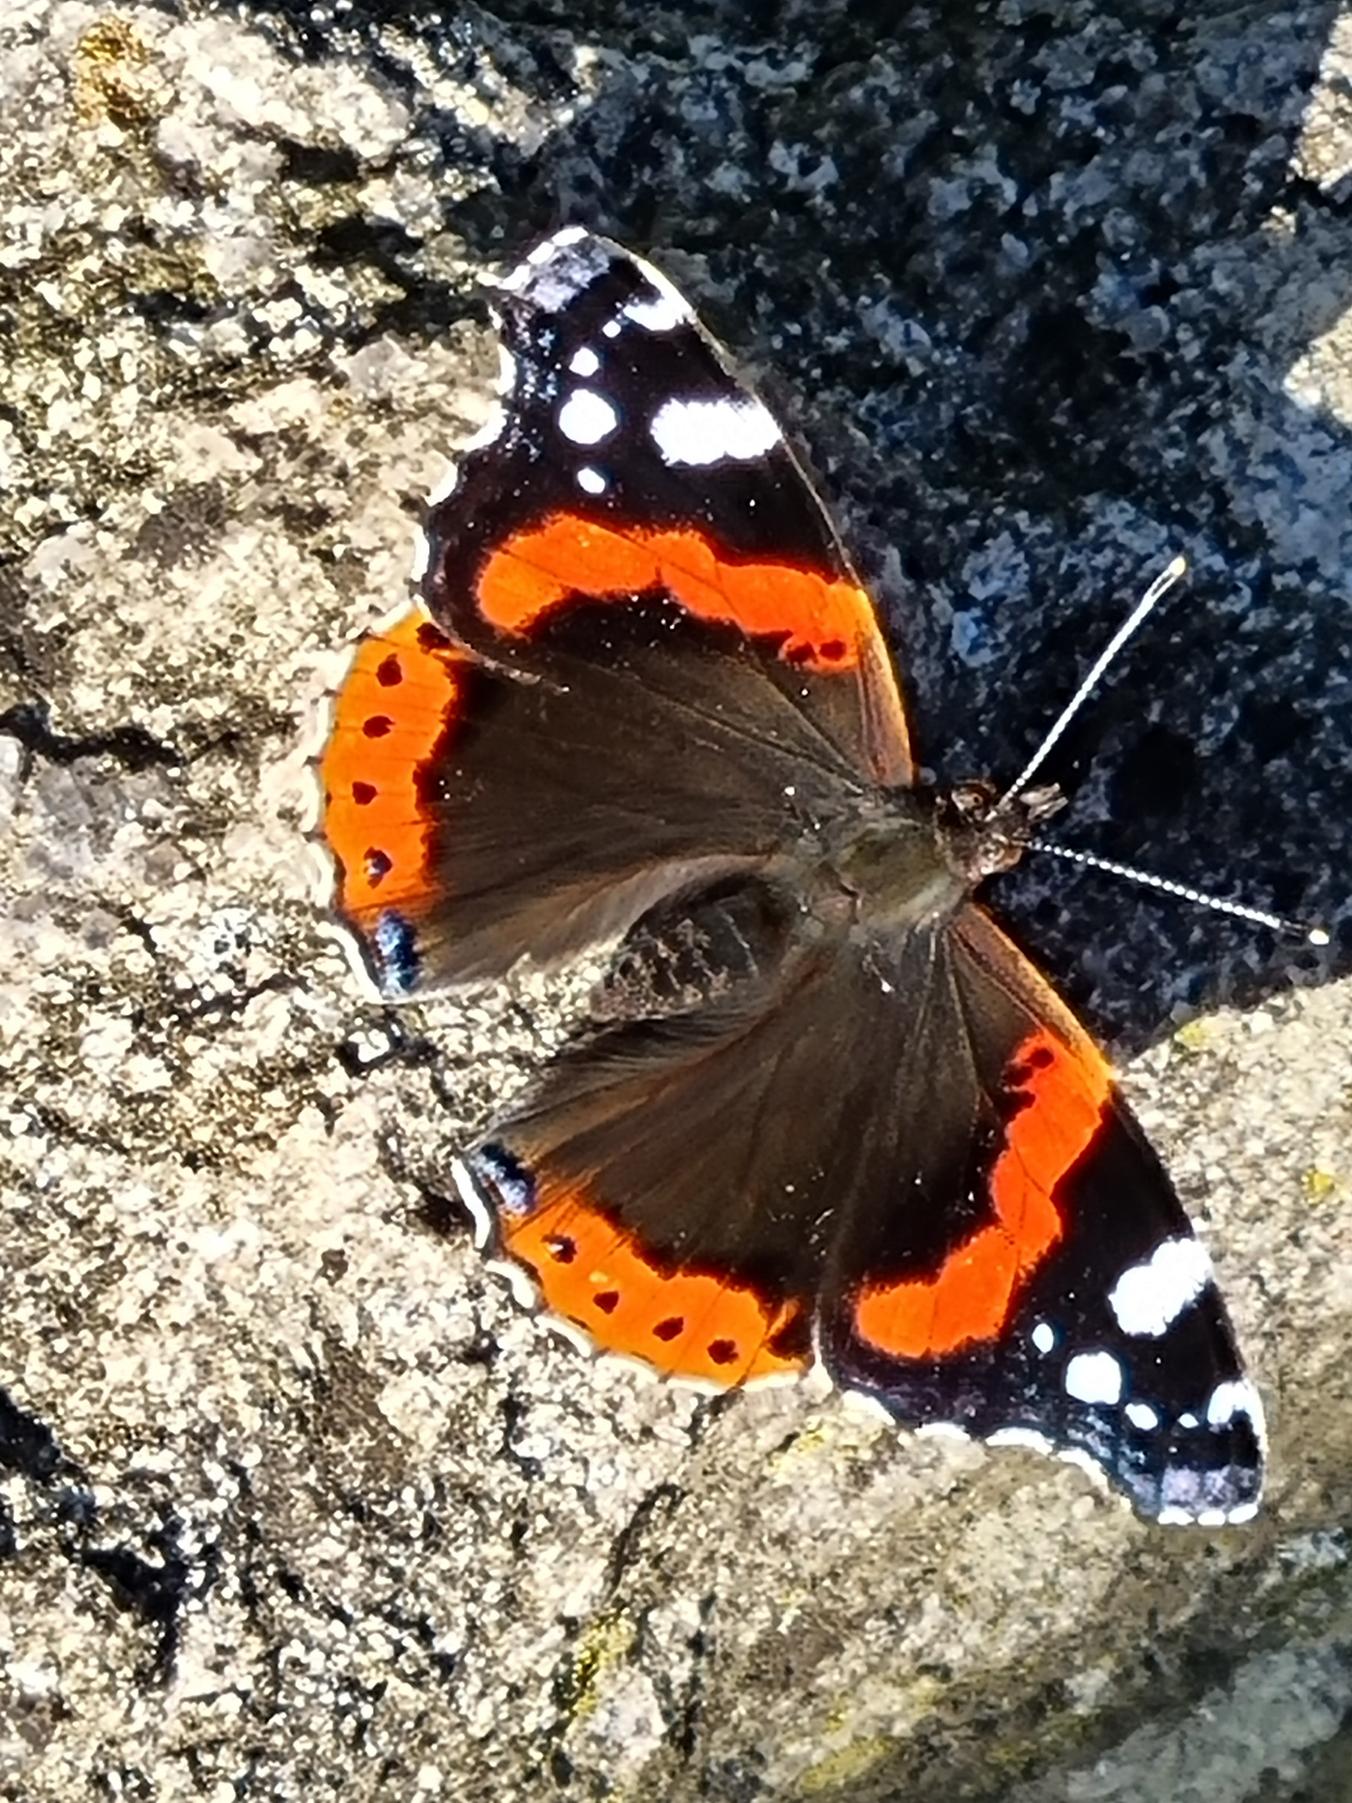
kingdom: Animalia
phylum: Arthropoda
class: Insecta
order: Lepidoptera
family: Nymphalidae
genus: Vanessa
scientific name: Vanessa atalanta
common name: Admiral
